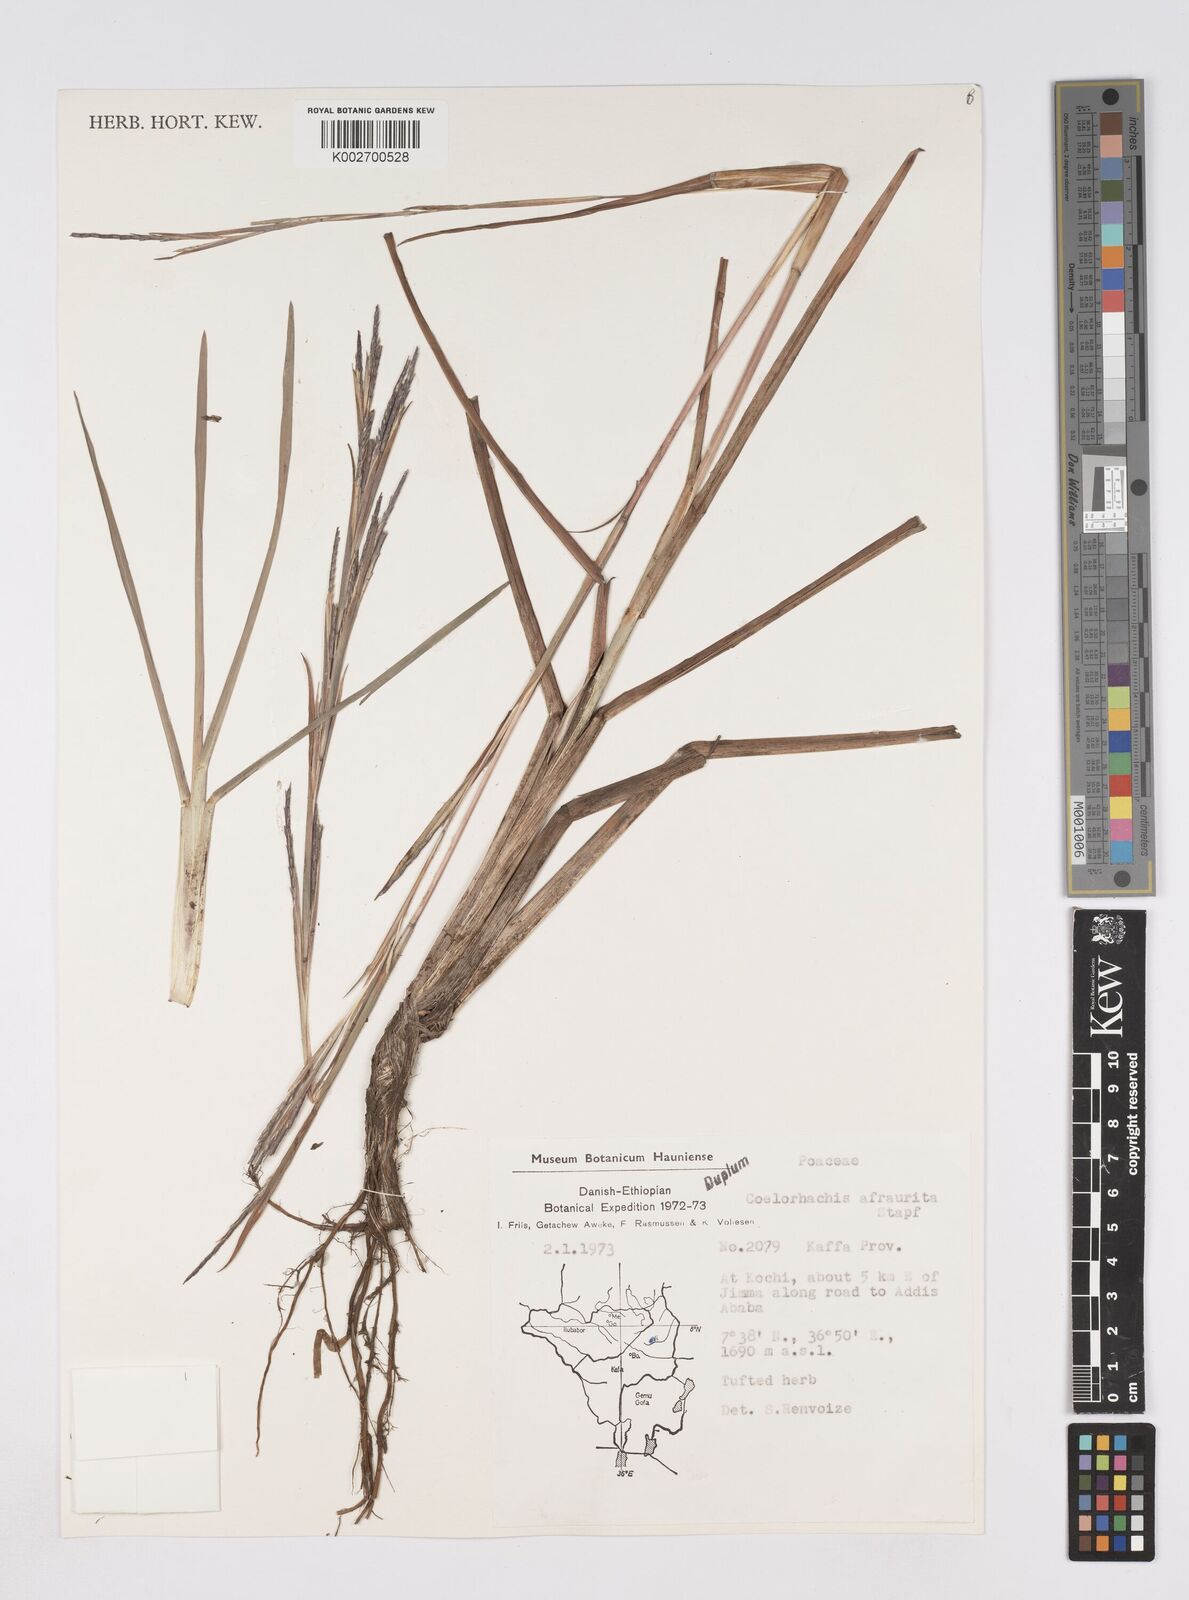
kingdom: Plantae
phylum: Tracheophyta
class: Liliopsida
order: Poales
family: Poaceae
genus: Rottboellia
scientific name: Rottboellia afraurita
